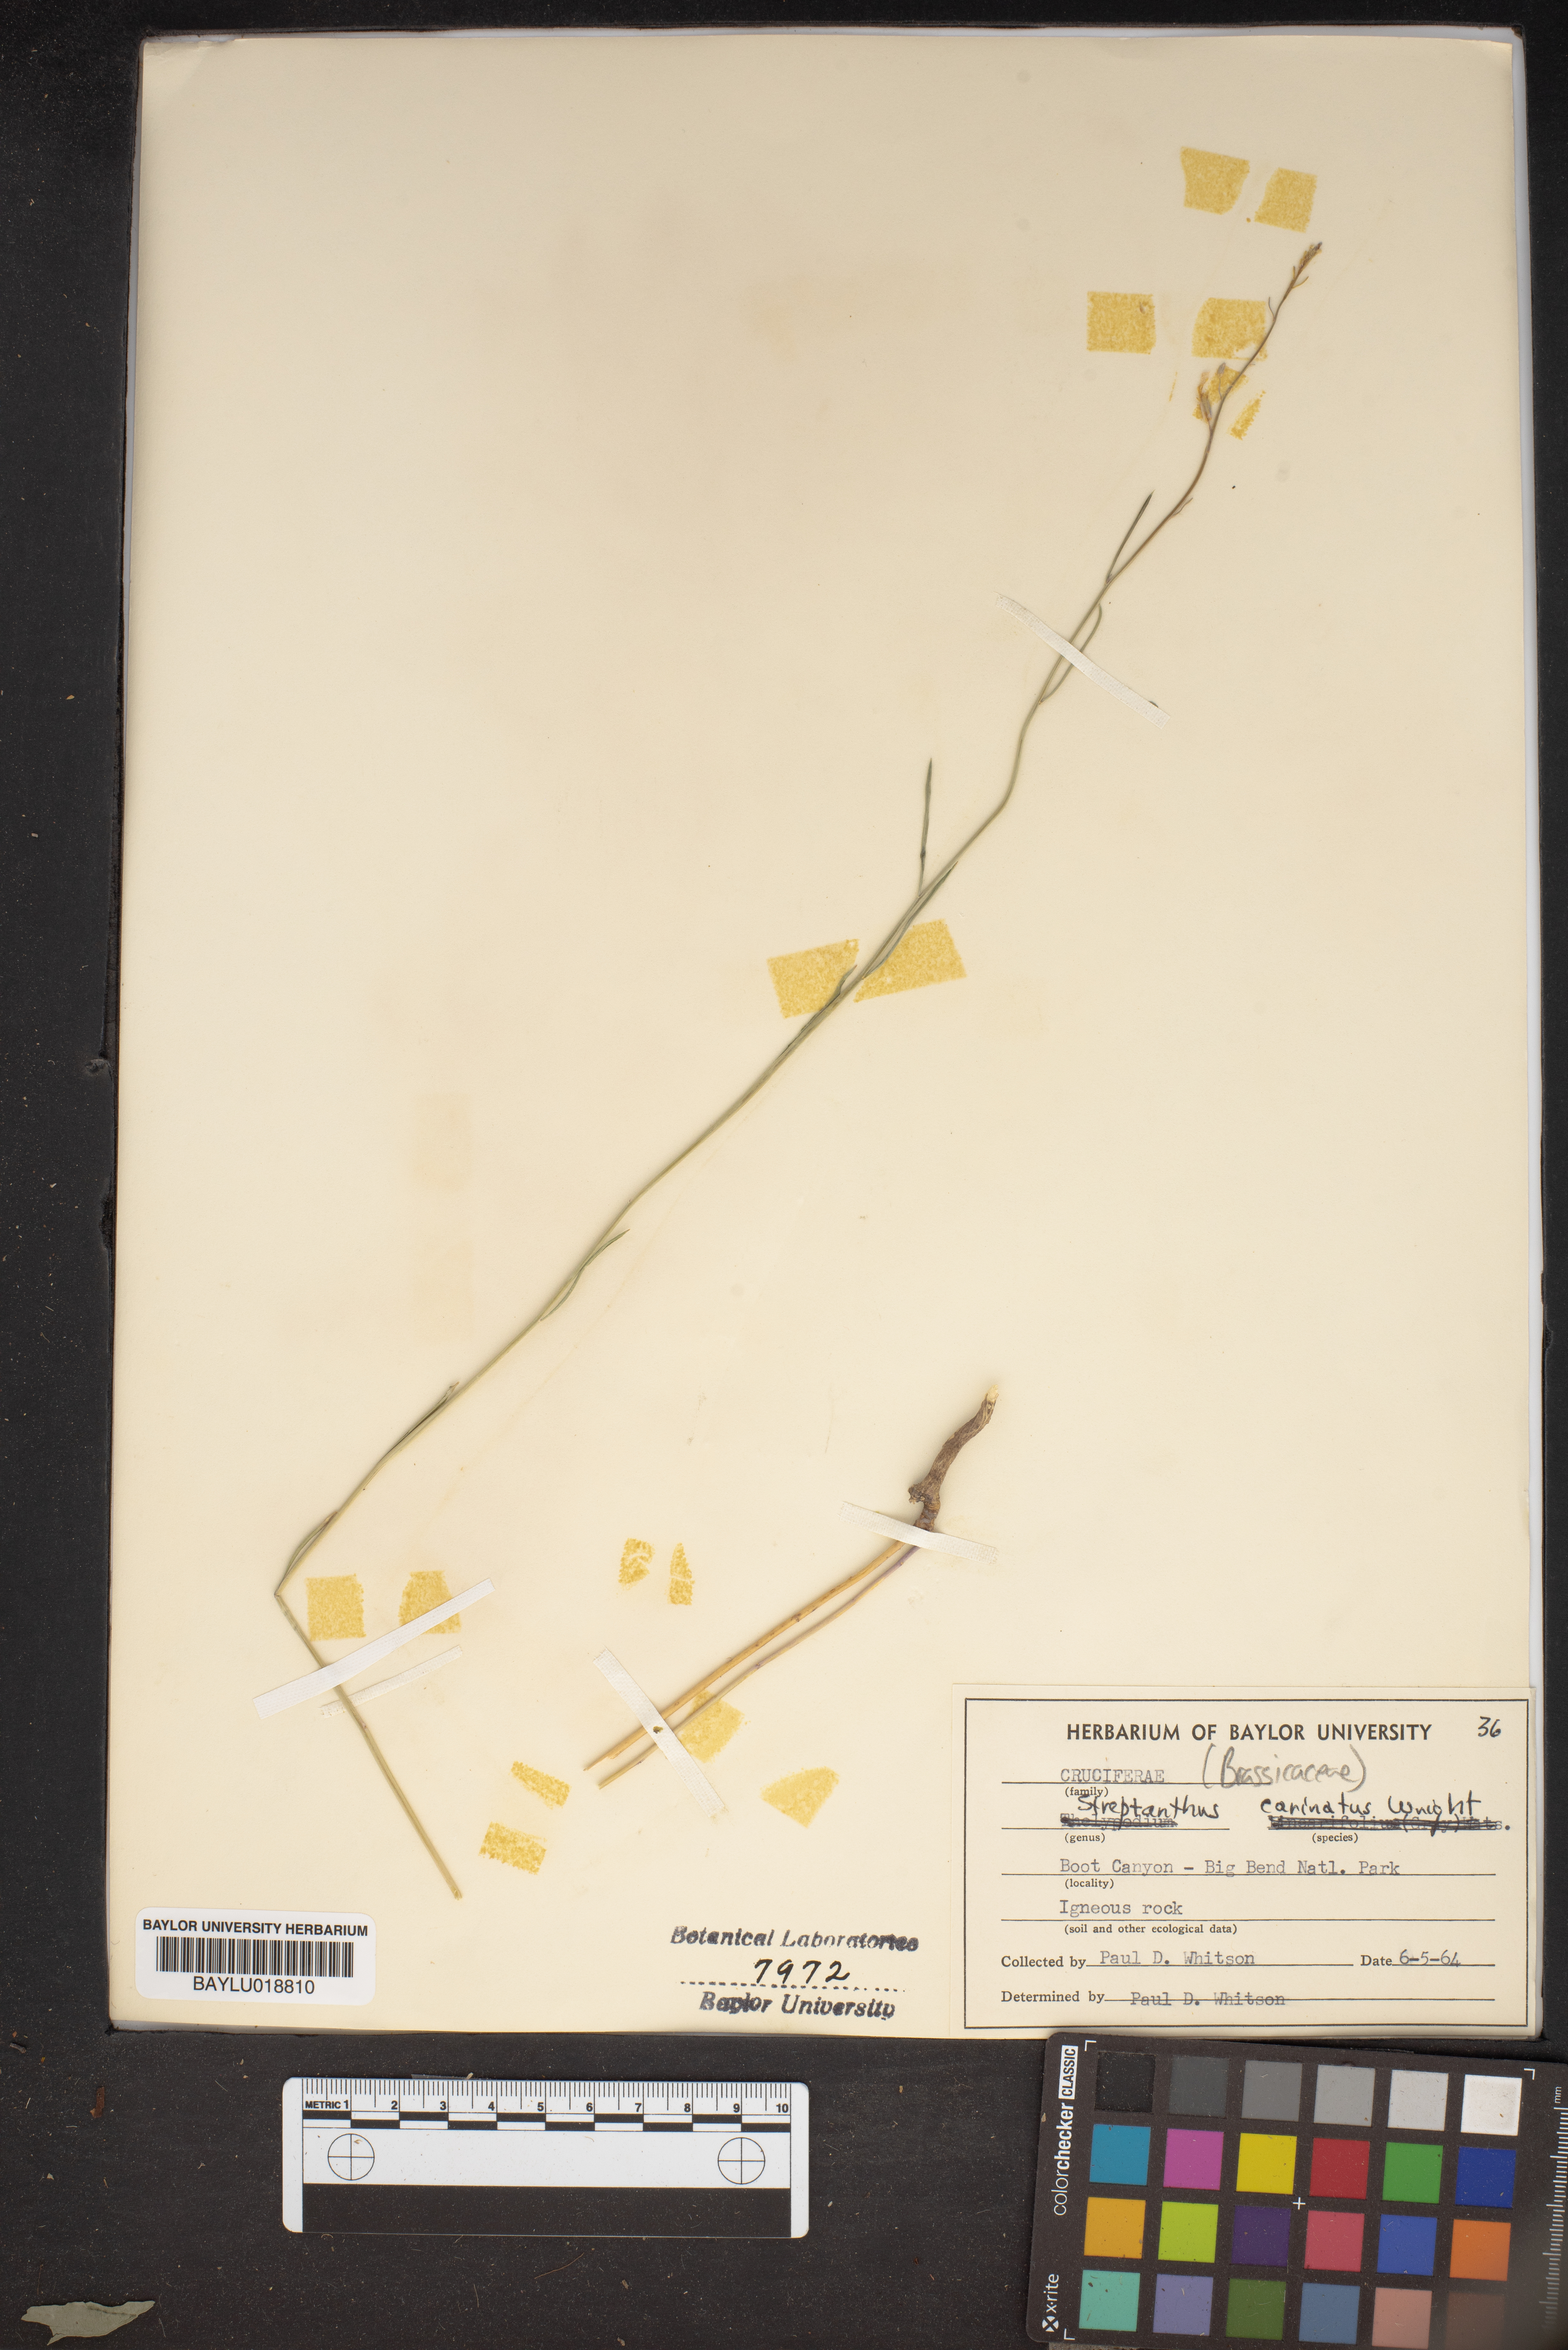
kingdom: Plantae
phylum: Tracheophyta
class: Magnoliopsida
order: Brassicales
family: Brassicaceae
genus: Streptanthus
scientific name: Streptanthus carinatus
